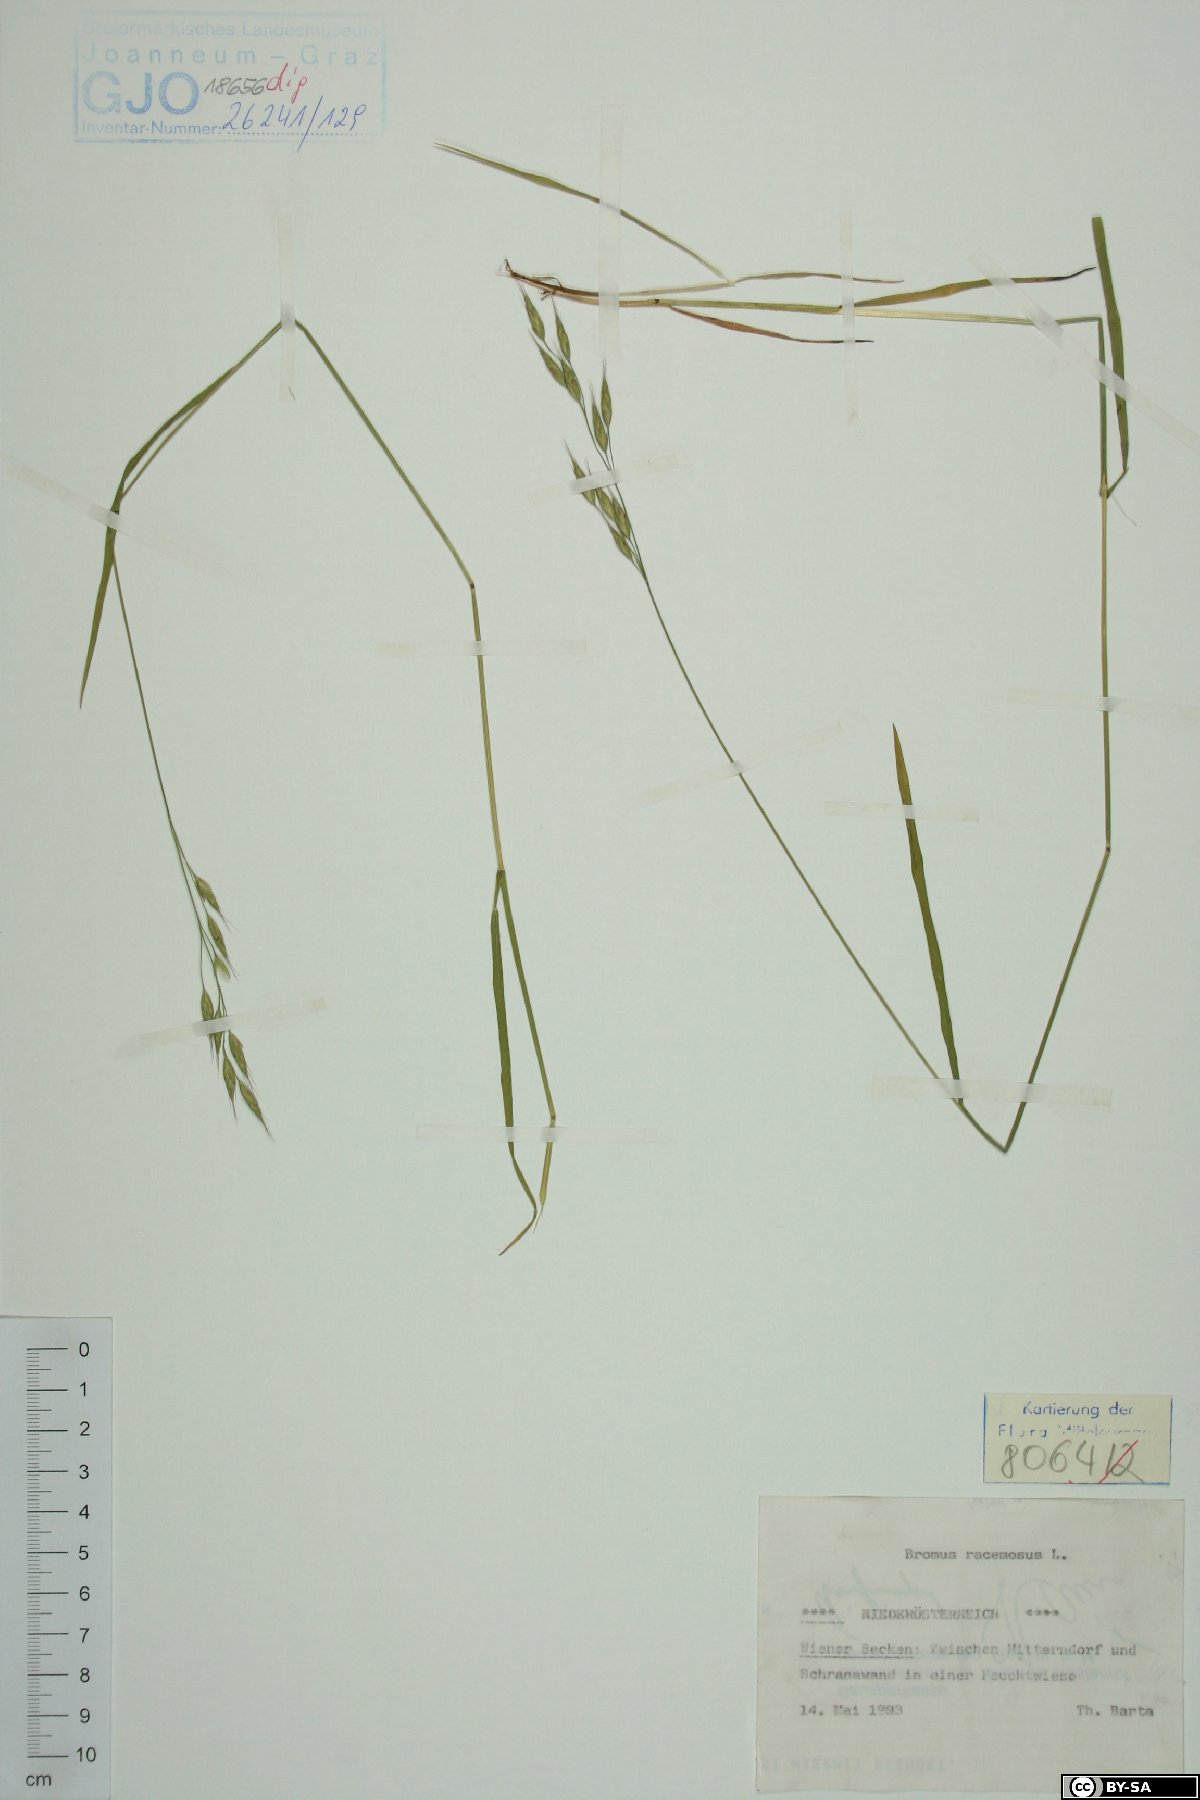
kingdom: Plantae
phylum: Tracheophyta
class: Liliopsida
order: Poales
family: Poaceae
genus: Bromus
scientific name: Bromus racemosus
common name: Bald brome
